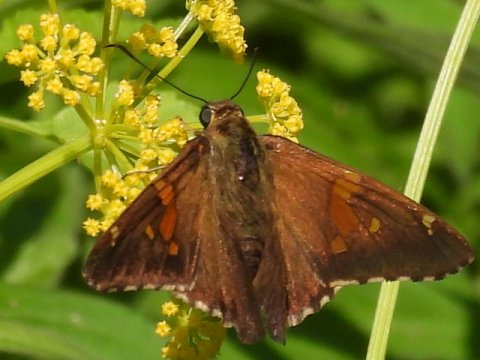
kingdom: Animalia
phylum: Arthropoda
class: Insecta
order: Lepidoptera
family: Hesperiidae
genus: Epargyreus
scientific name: Epargyreus clarus
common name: Silver-spotted Skipper
